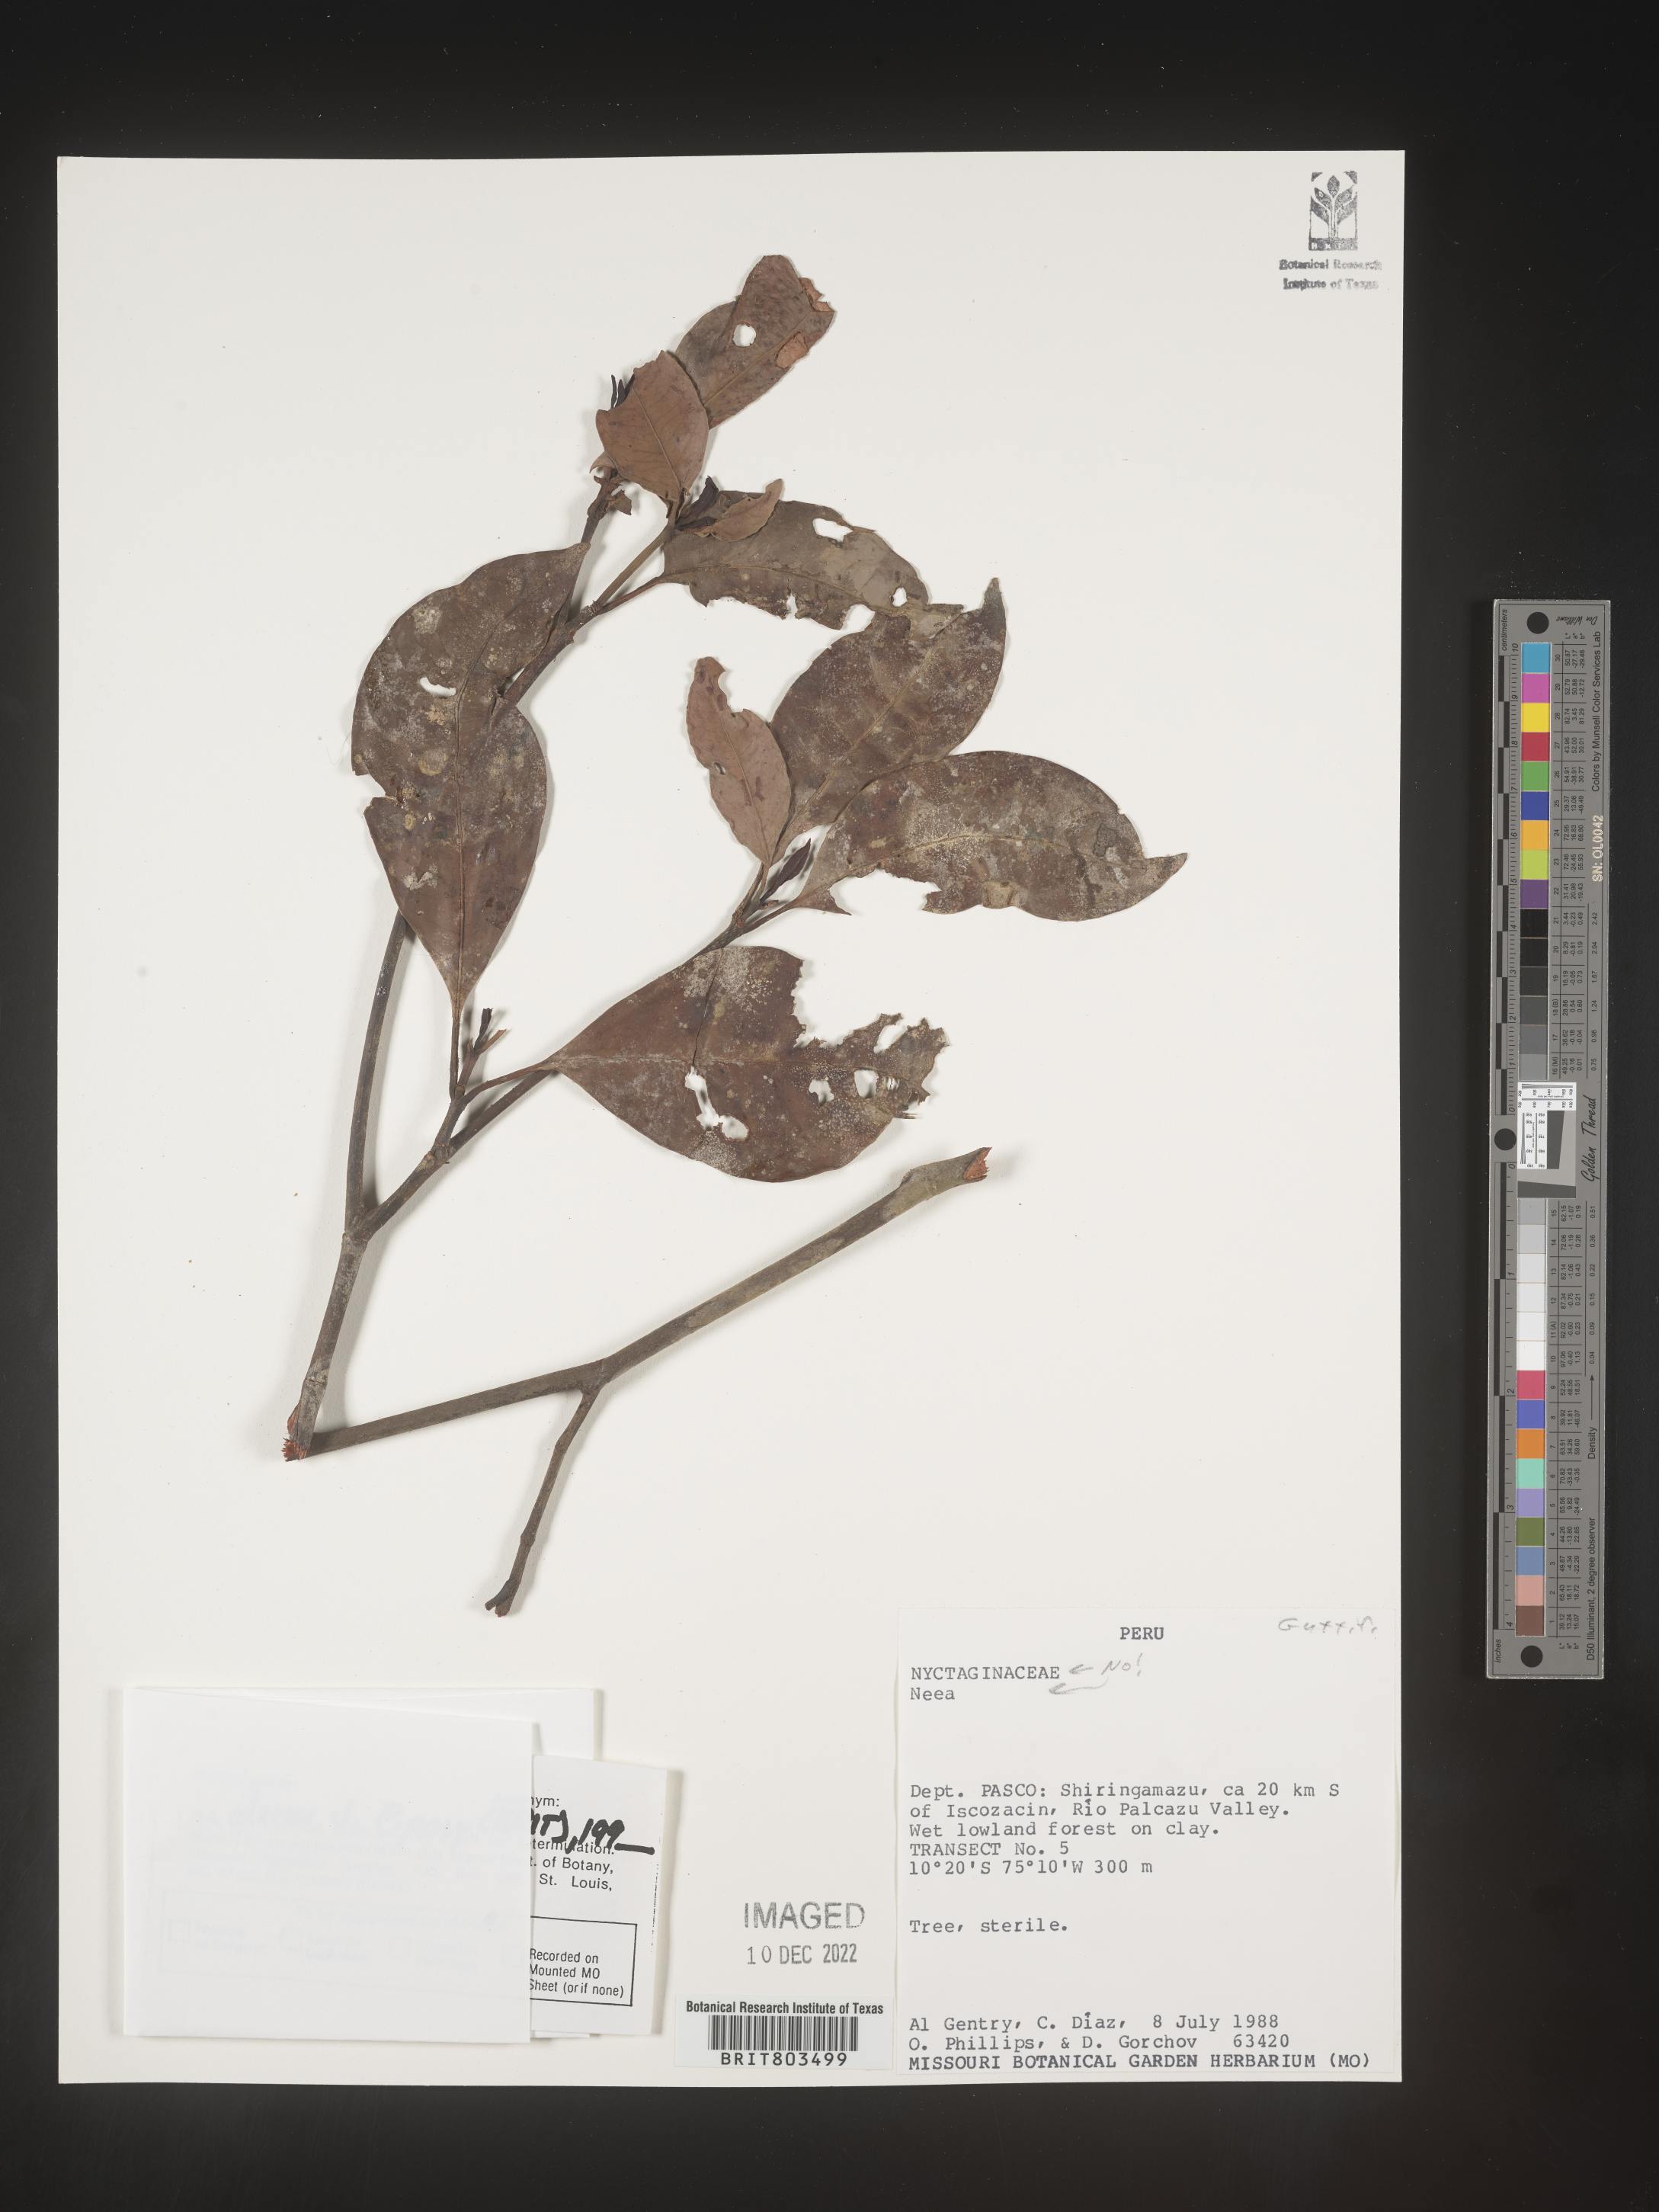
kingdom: Plantae
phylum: Tracheophyta
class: Magnoliopsida
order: Malpighiales
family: Clusiaceae
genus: Tovomita
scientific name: Tovomita
